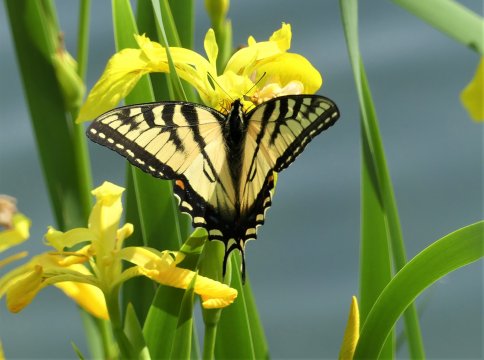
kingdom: Animalia
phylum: Arthropoda
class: Insecta
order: Lepidoptera
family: Papilionidae
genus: Pterourus
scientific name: Pterourus canadensis
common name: Canadian Tiger Swallowtail
